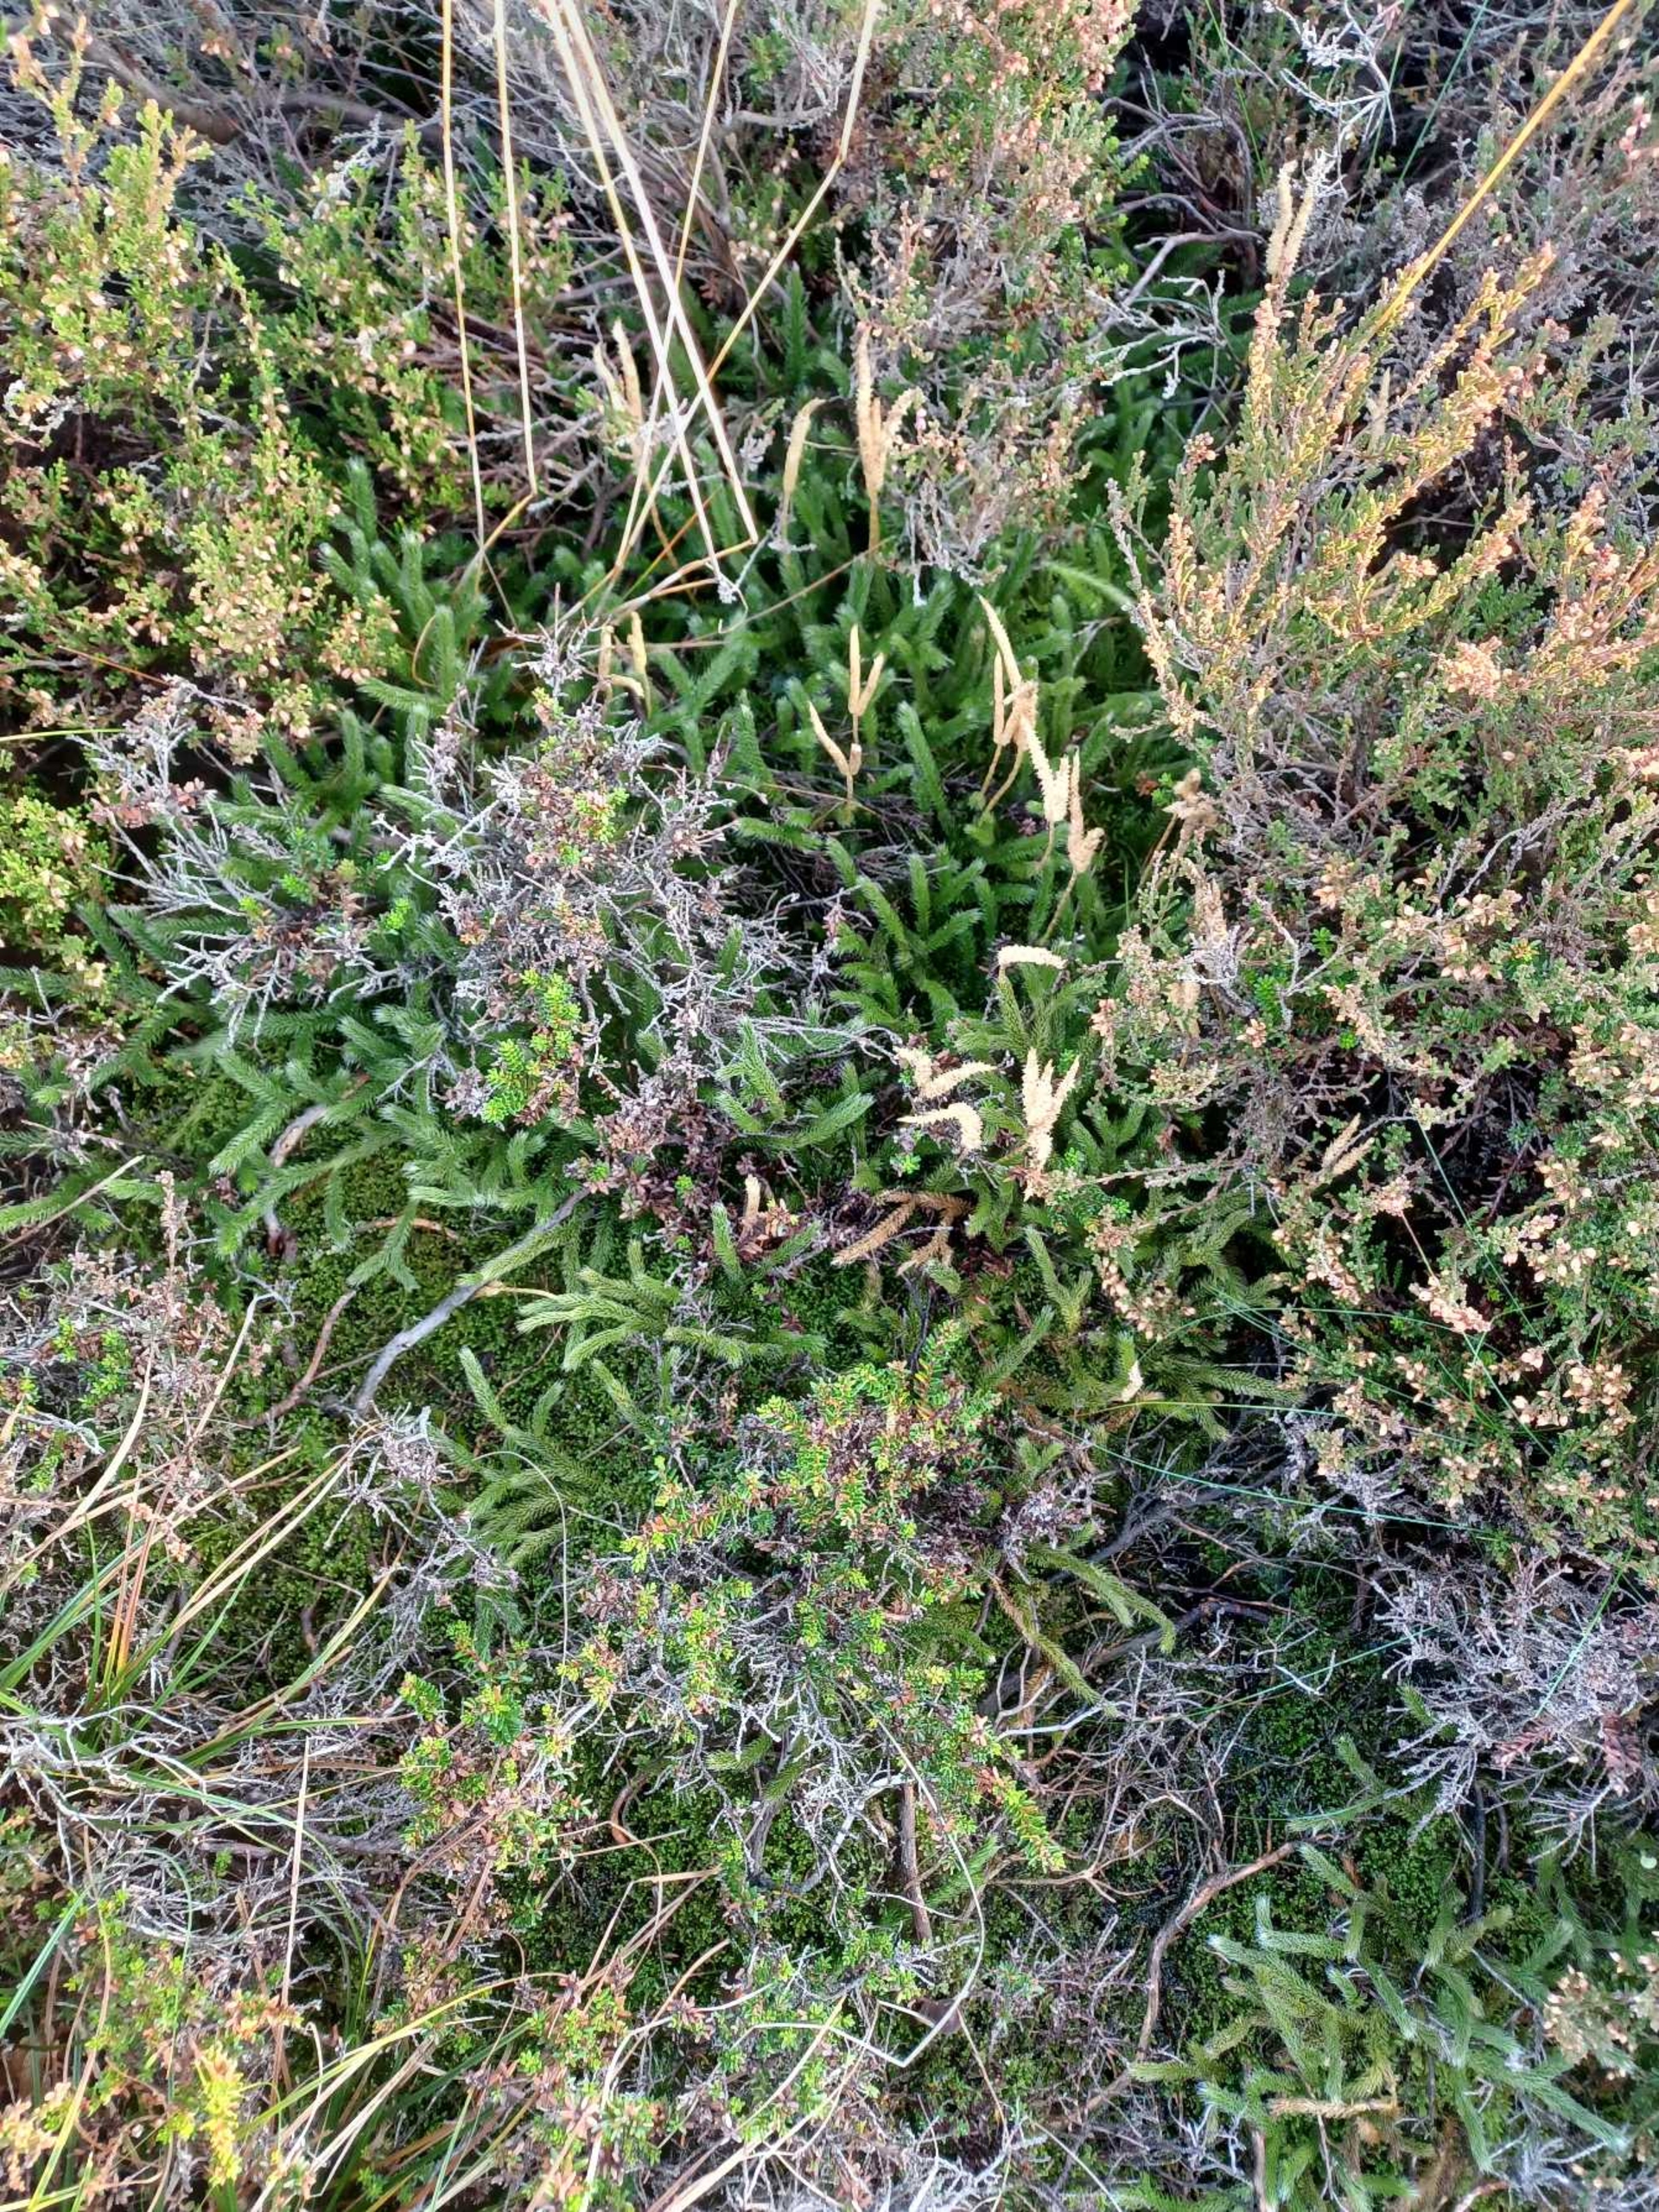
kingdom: Plantae
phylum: Tracheophyta
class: Lycopodiopsida
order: Lycopodiales
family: Lycopodiaceae
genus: Lycopodium
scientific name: Lycopodium clavatum
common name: Almindelig ulvefod
